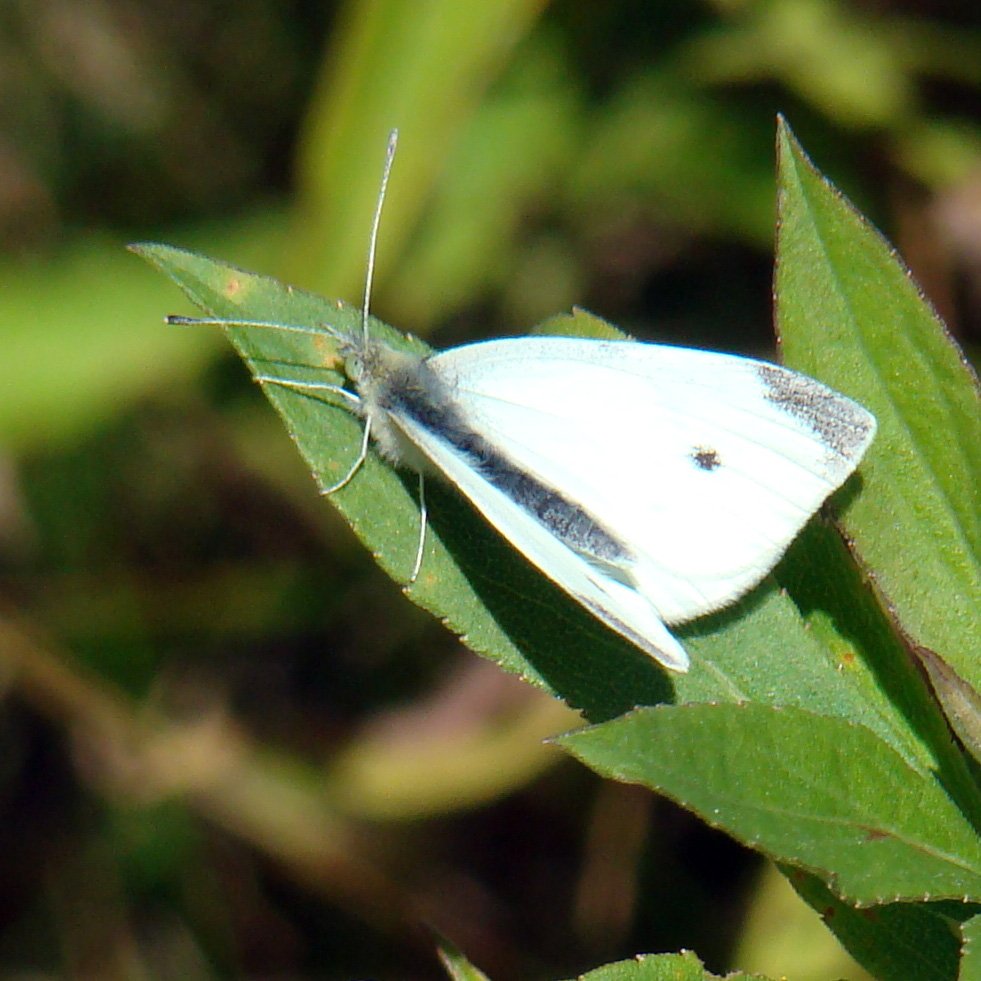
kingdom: Animalia
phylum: Arthropoda
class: Insecta
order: Lepidoptera
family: Pieridae
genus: Pieris
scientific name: Pieris rapae
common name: Cabbage White
